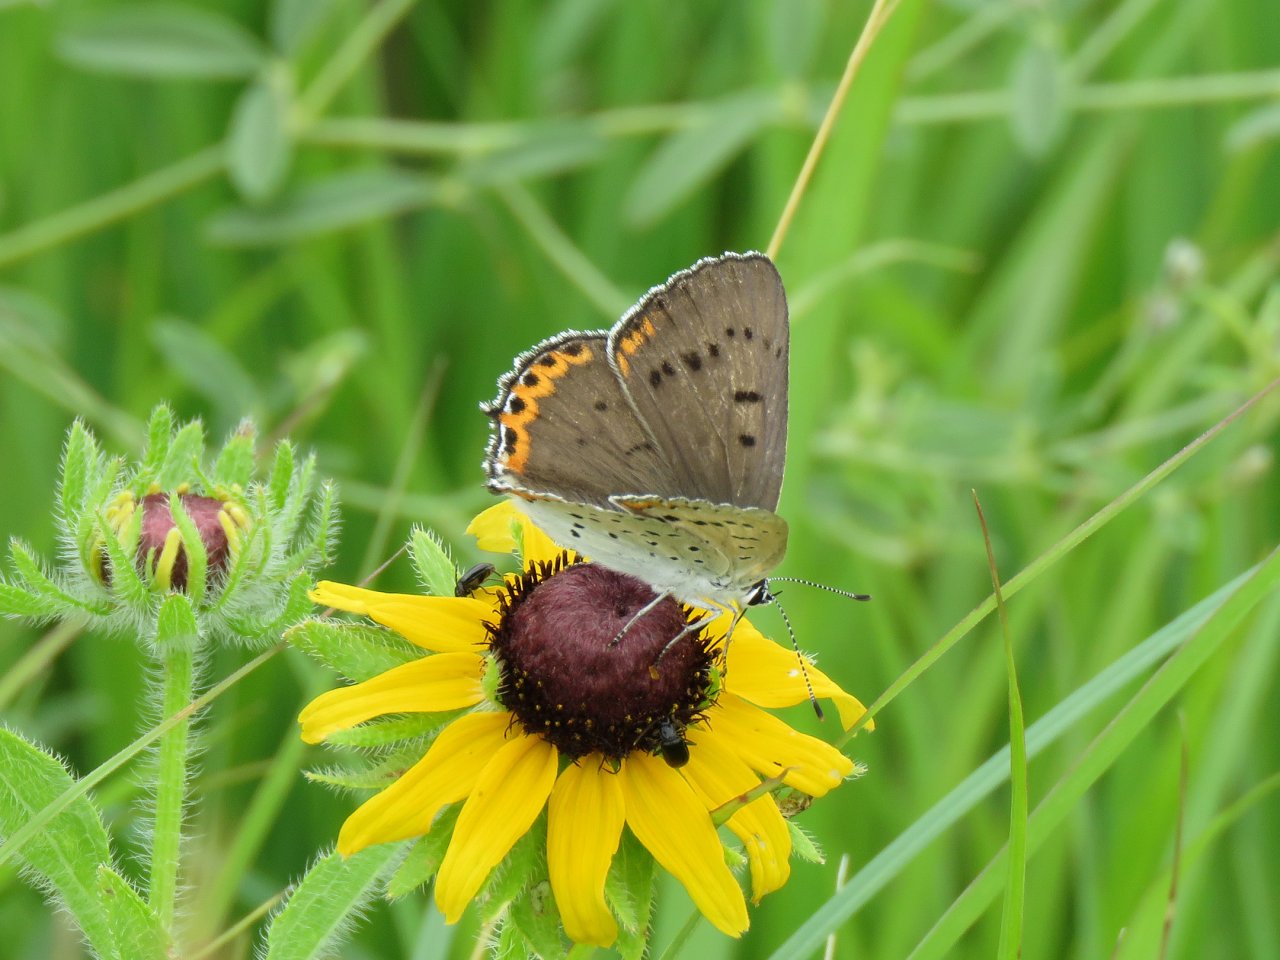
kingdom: Animalia
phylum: Arthropoda
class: Insecta
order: Lepidoptera
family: Lycaenidae
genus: Nacaduba
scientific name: Nacaduba dyopa
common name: Gray Copper
